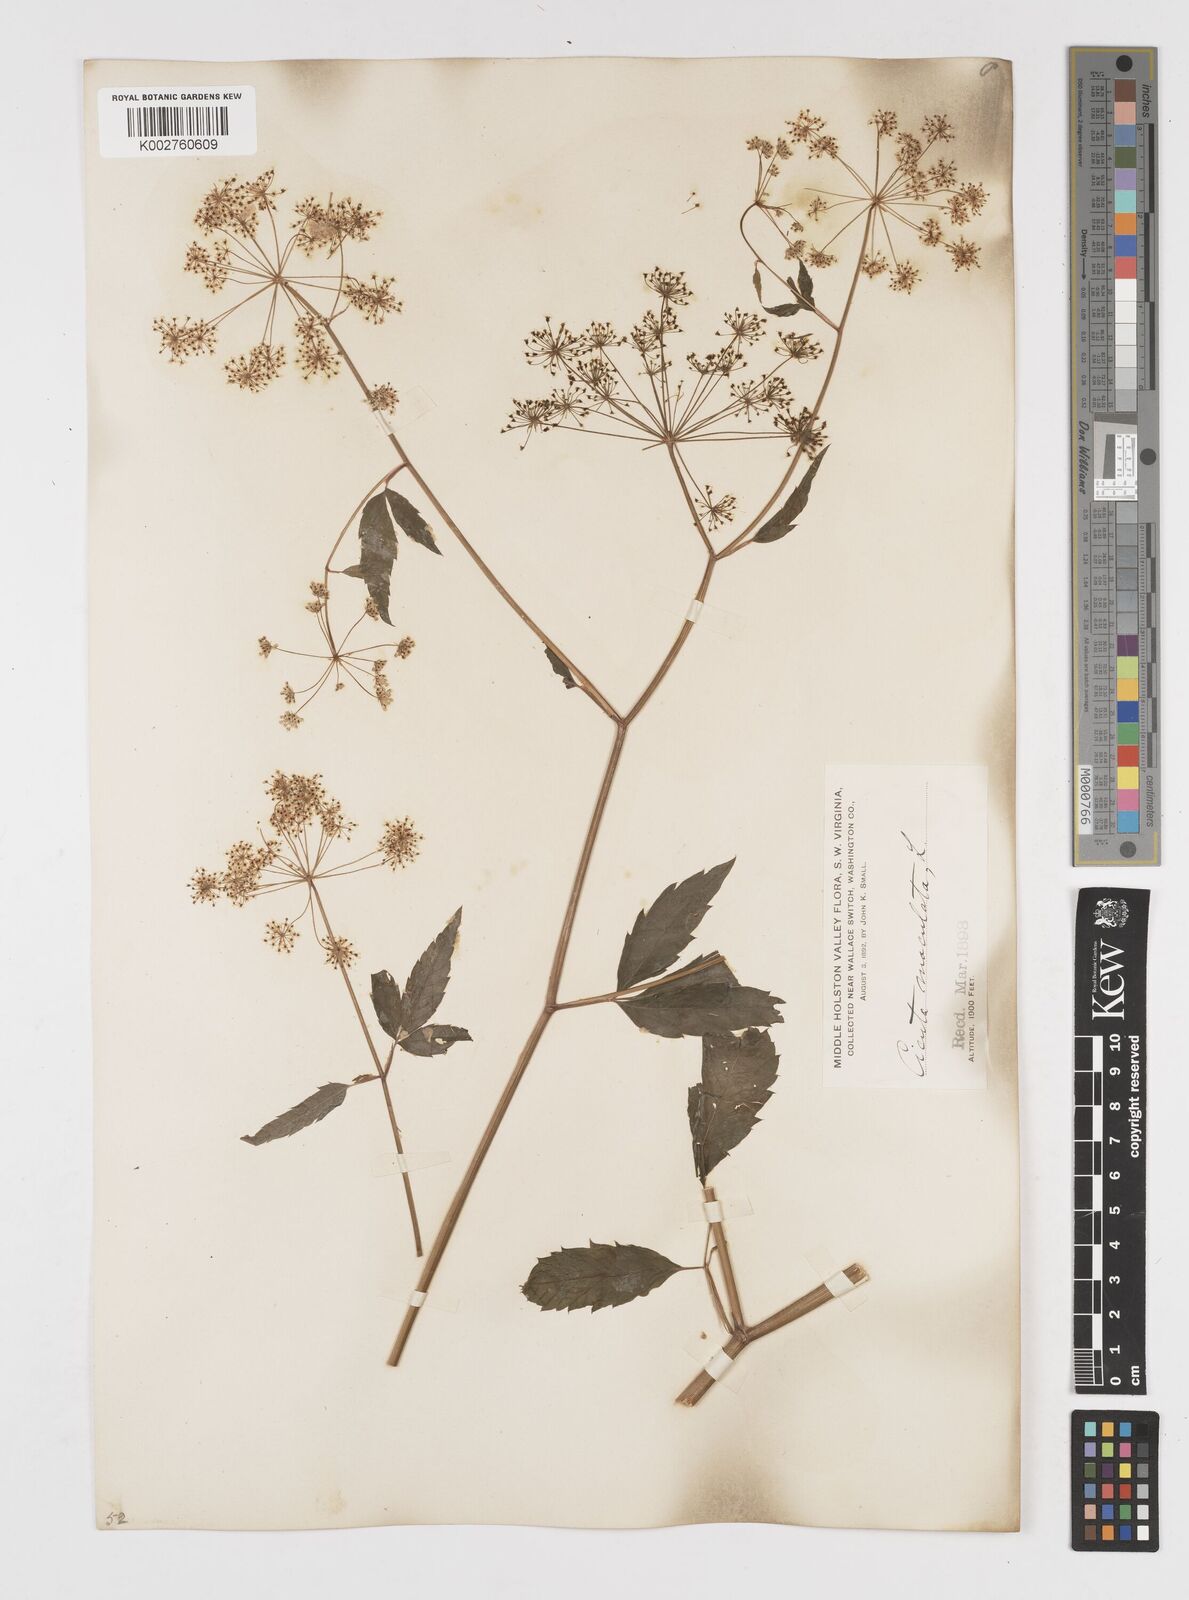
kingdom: Plantae
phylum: Tracheophyta
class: Magnoliopsida
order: Apiales
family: Apiaceae
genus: Cicuta
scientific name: Cicuta maculata
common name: Spotted cowbane
